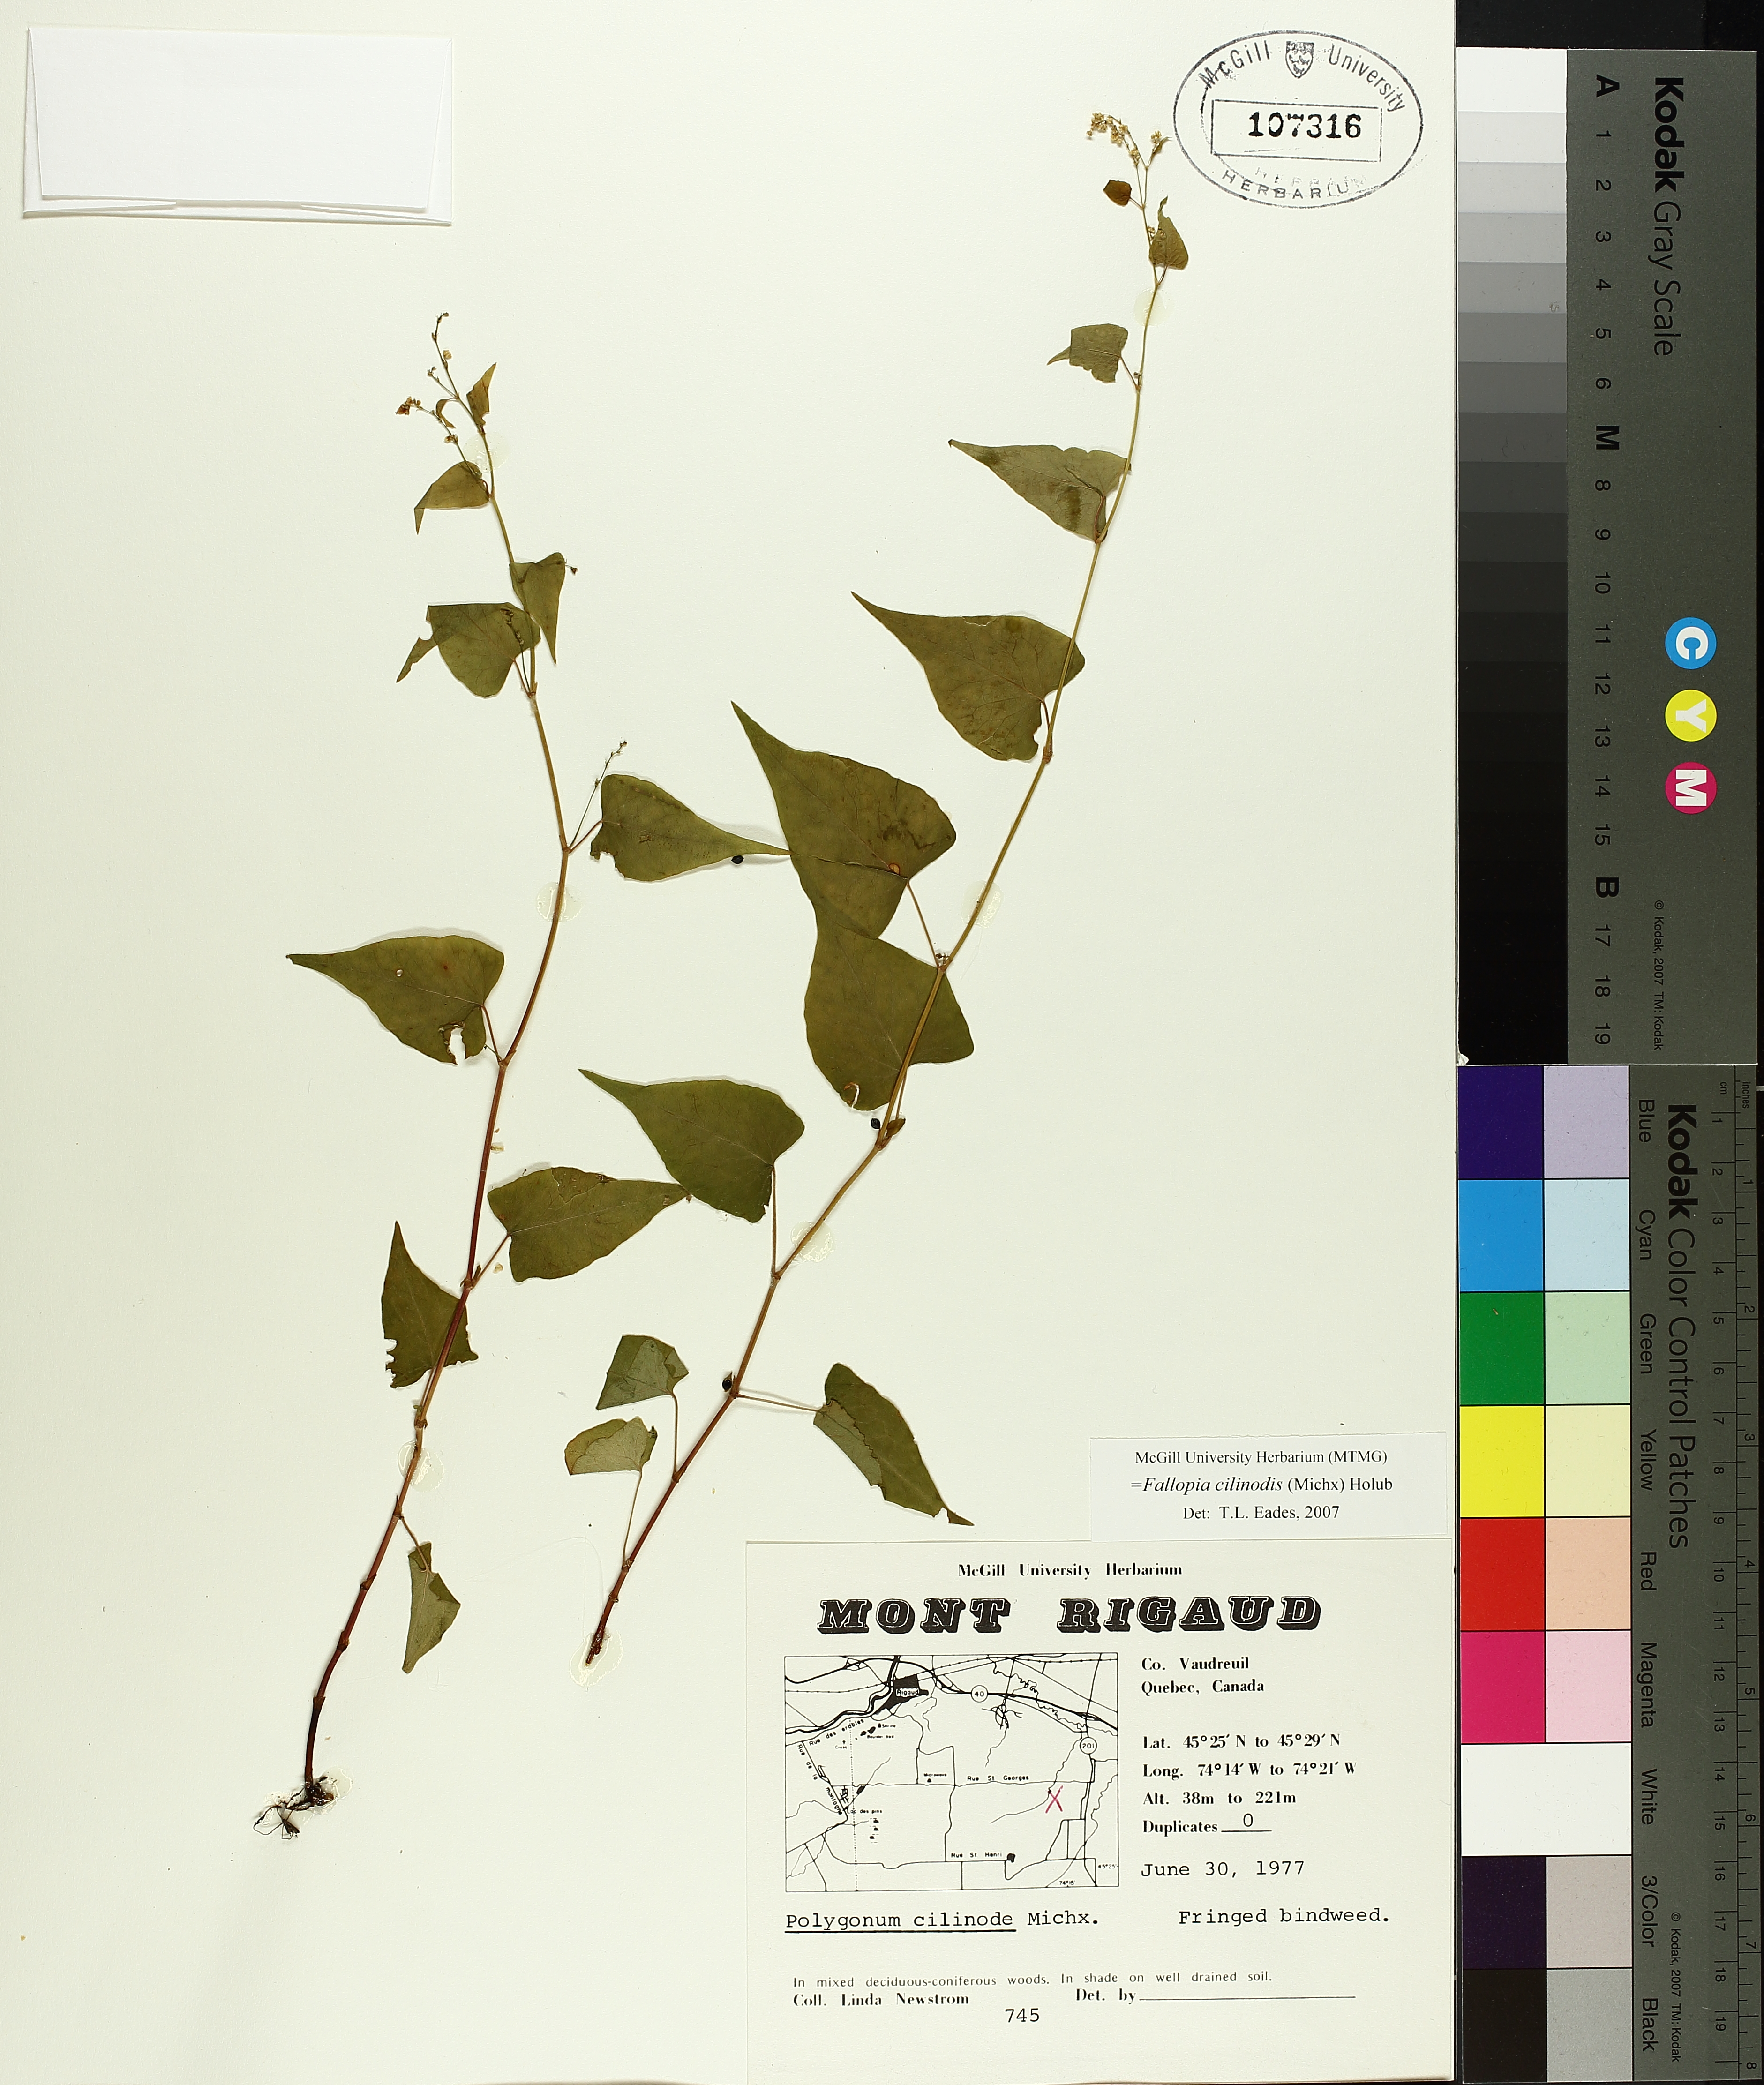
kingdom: Plantae
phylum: Tracheophyta
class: Magnoliopsida
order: Caryophyllales
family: Polygonaceae
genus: Parogonum
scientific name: Parogonum ciliinode
